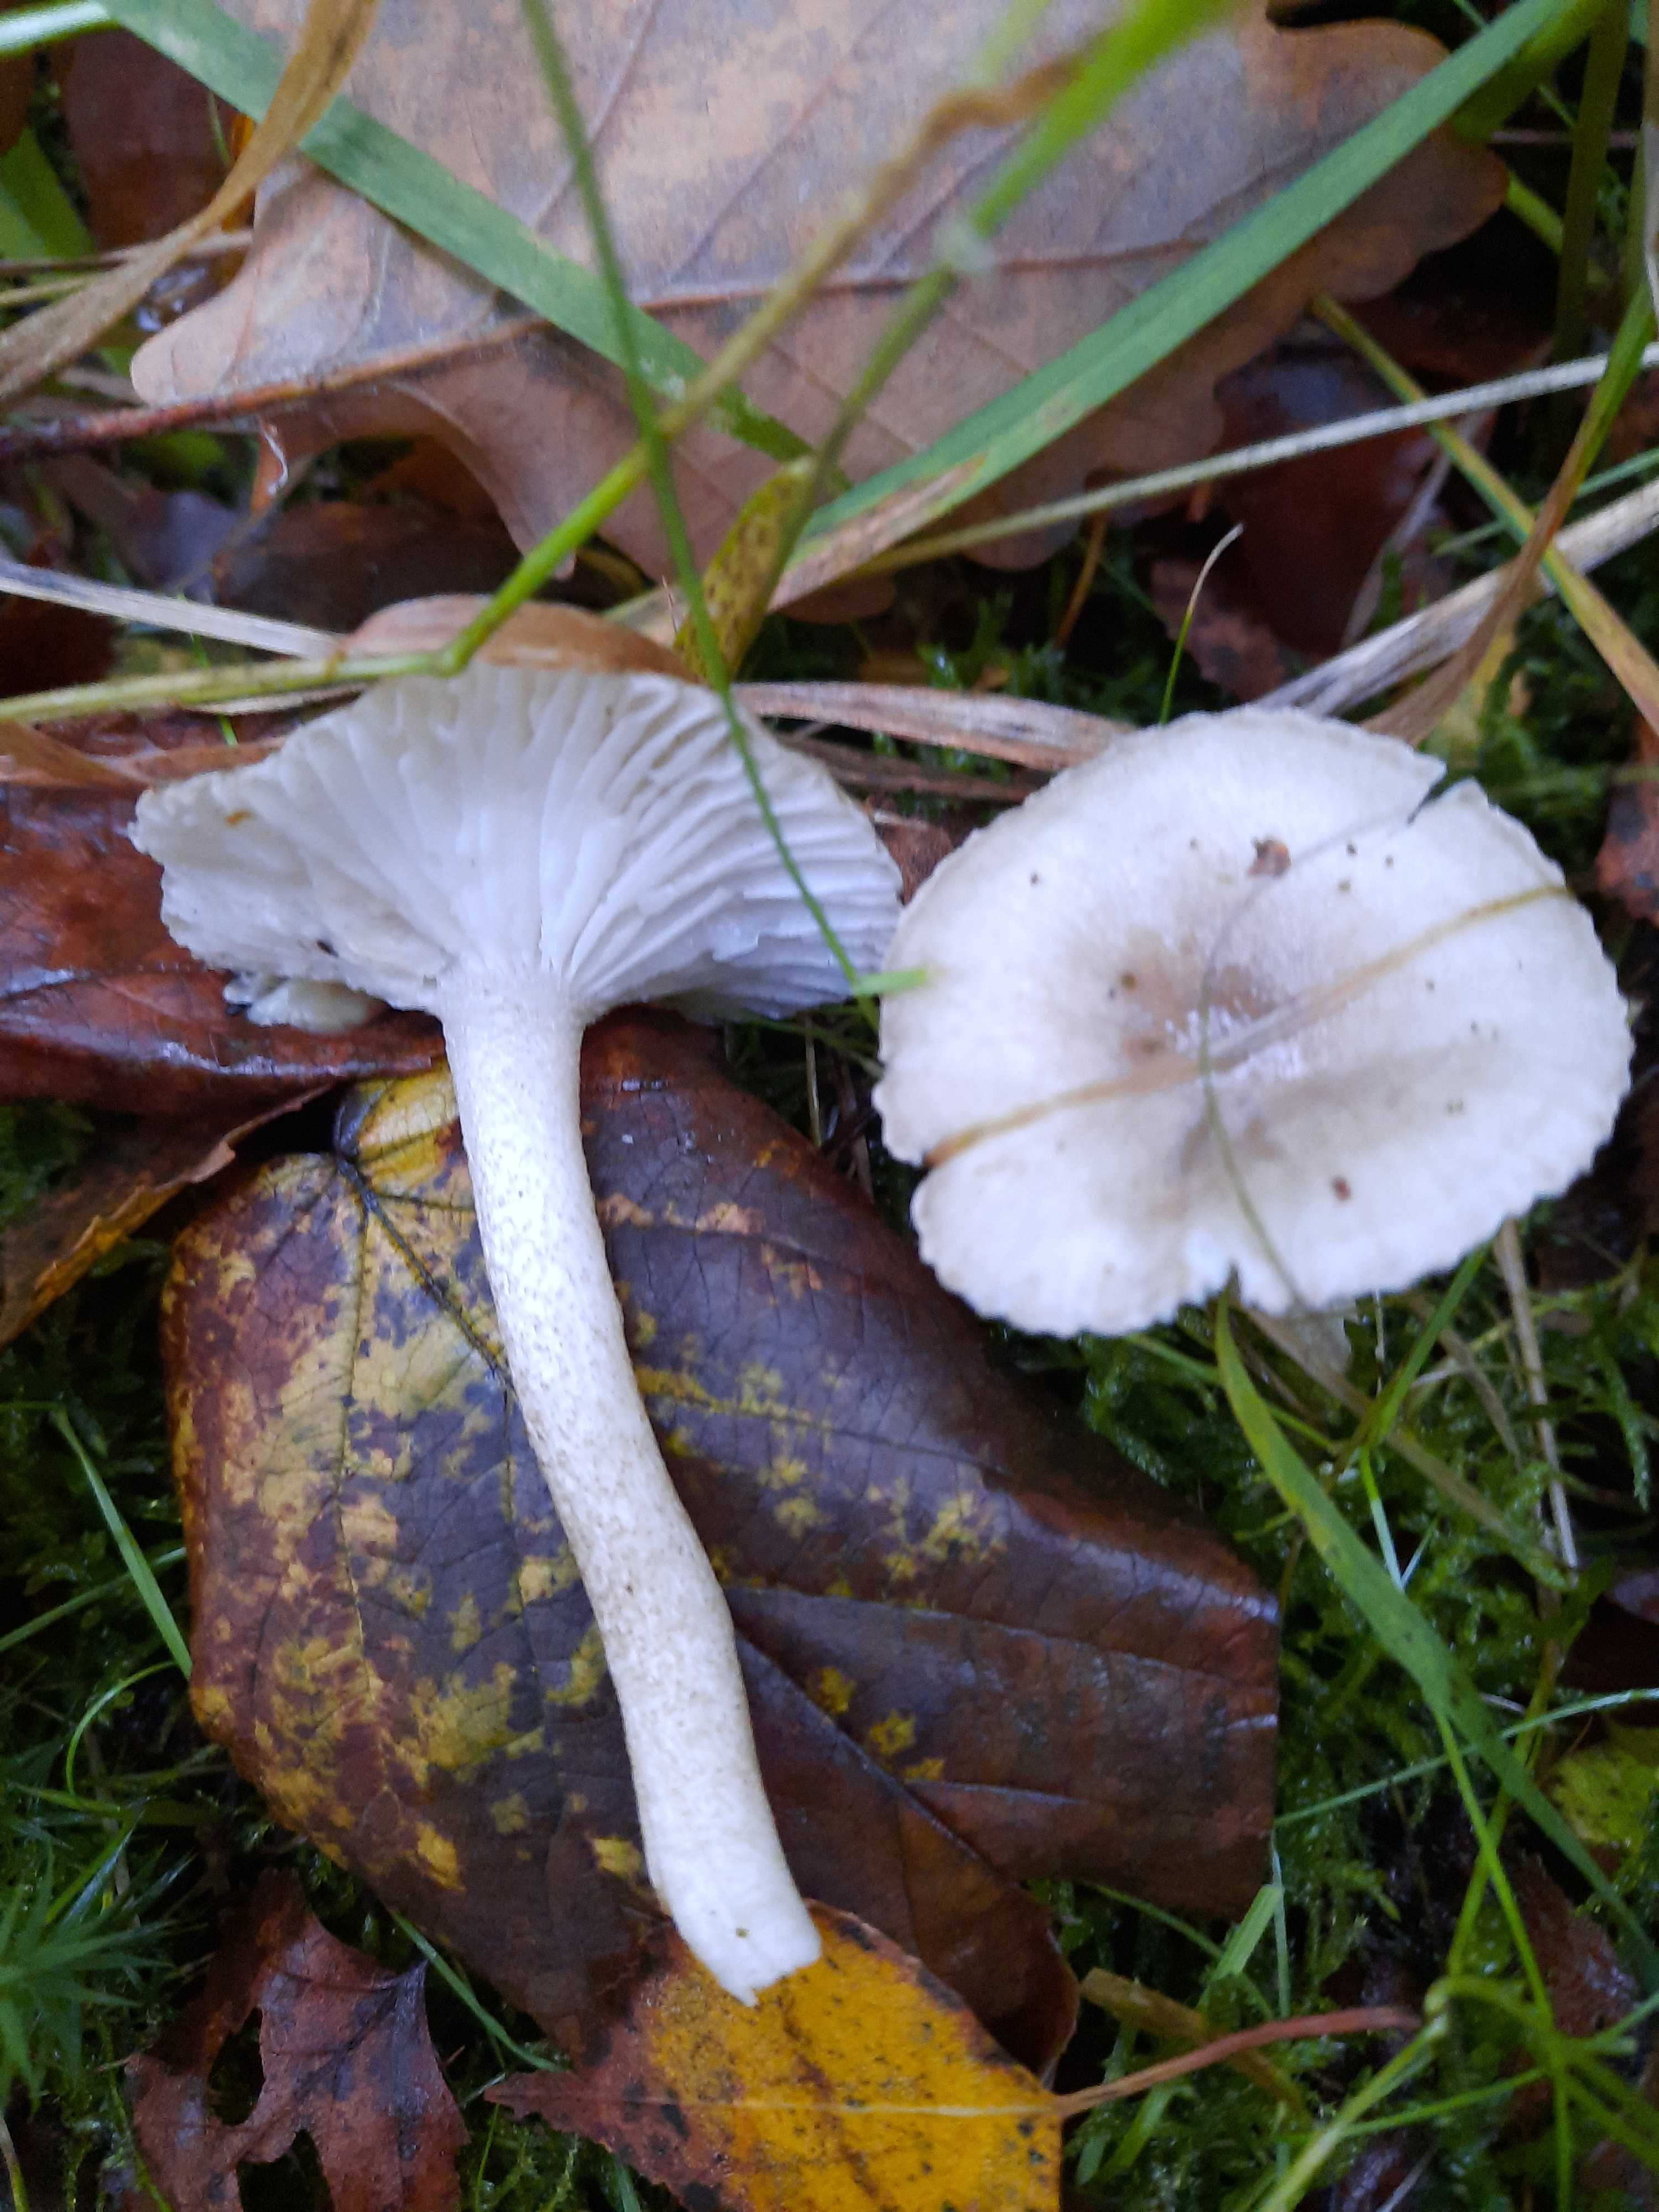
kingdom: Fungi
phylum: Basidiomycota
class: Agaricomycetes
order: Agaricales
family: Hygrophoraceae
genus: Hygrophorus
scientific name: Hygrophorus pustulatus
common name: mørkprikket sneglehat
